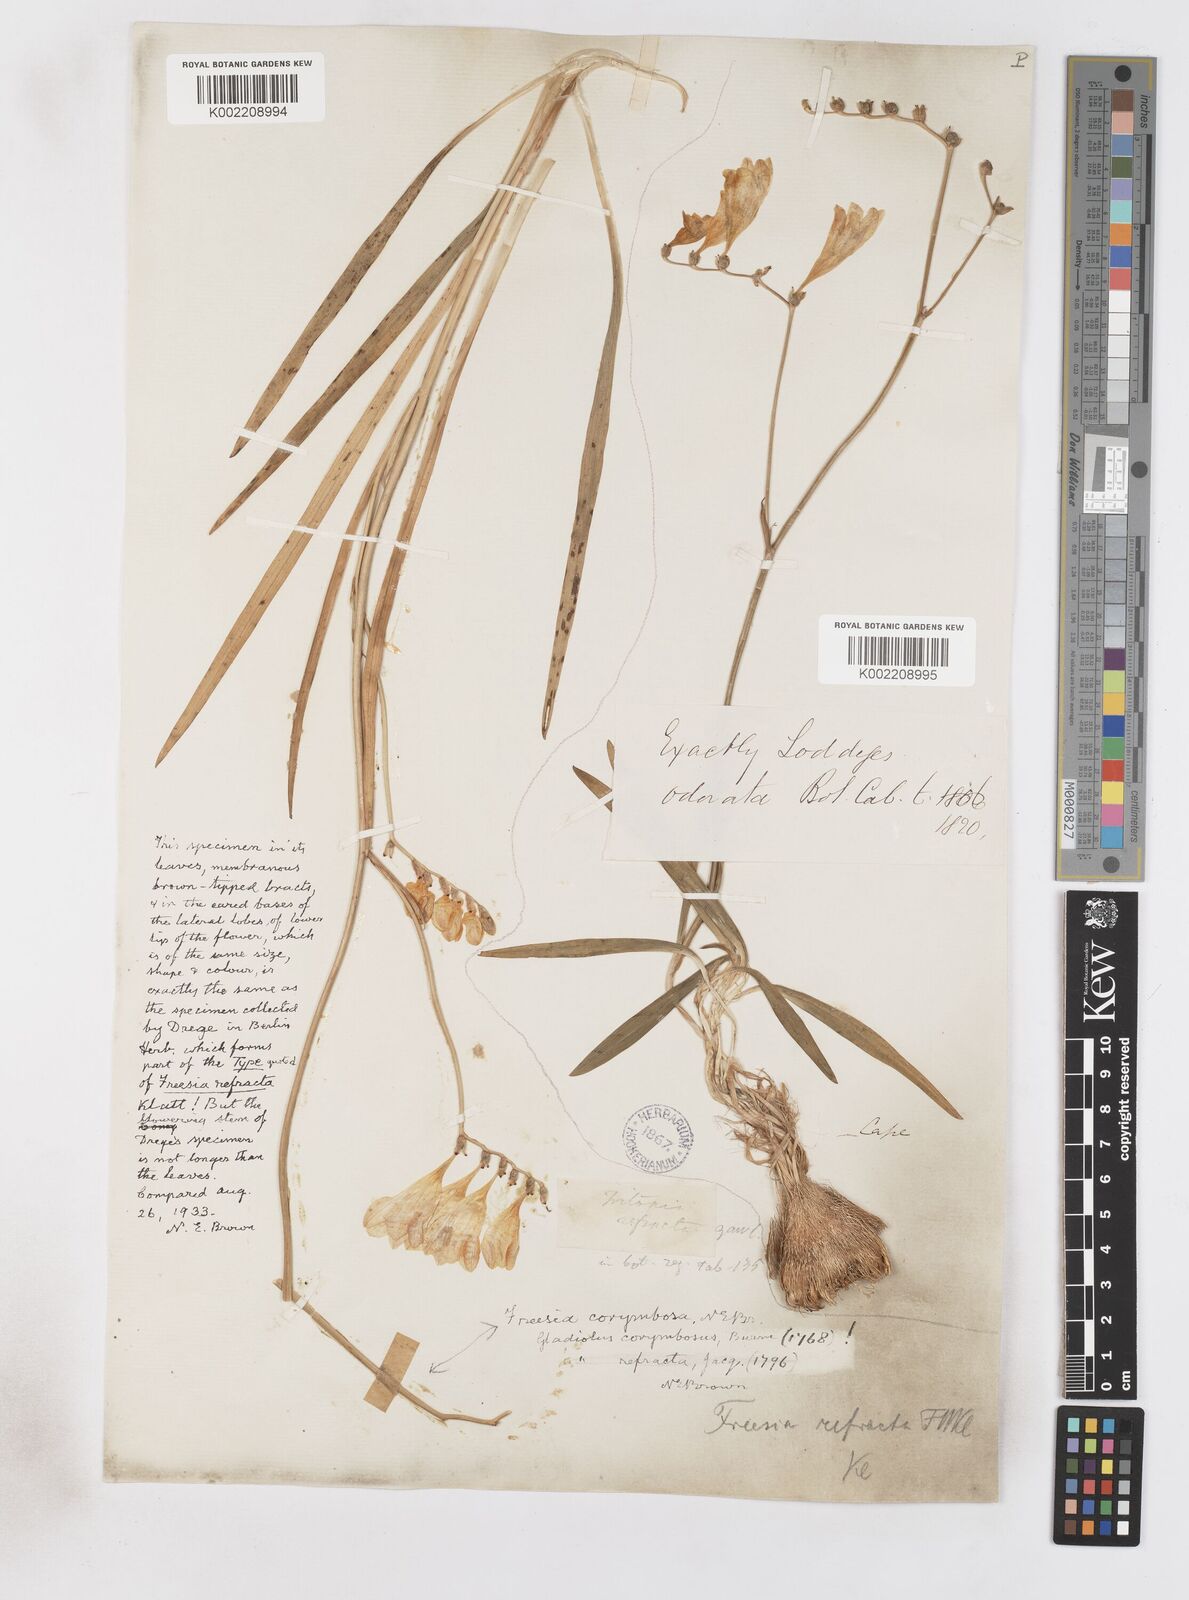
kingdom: Plantae
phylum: Tracheophyta
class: Liliopsida
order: Asparagales
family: Iridaceae
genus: Freesia
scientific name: Freesia corymbosa
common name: Common freesia
